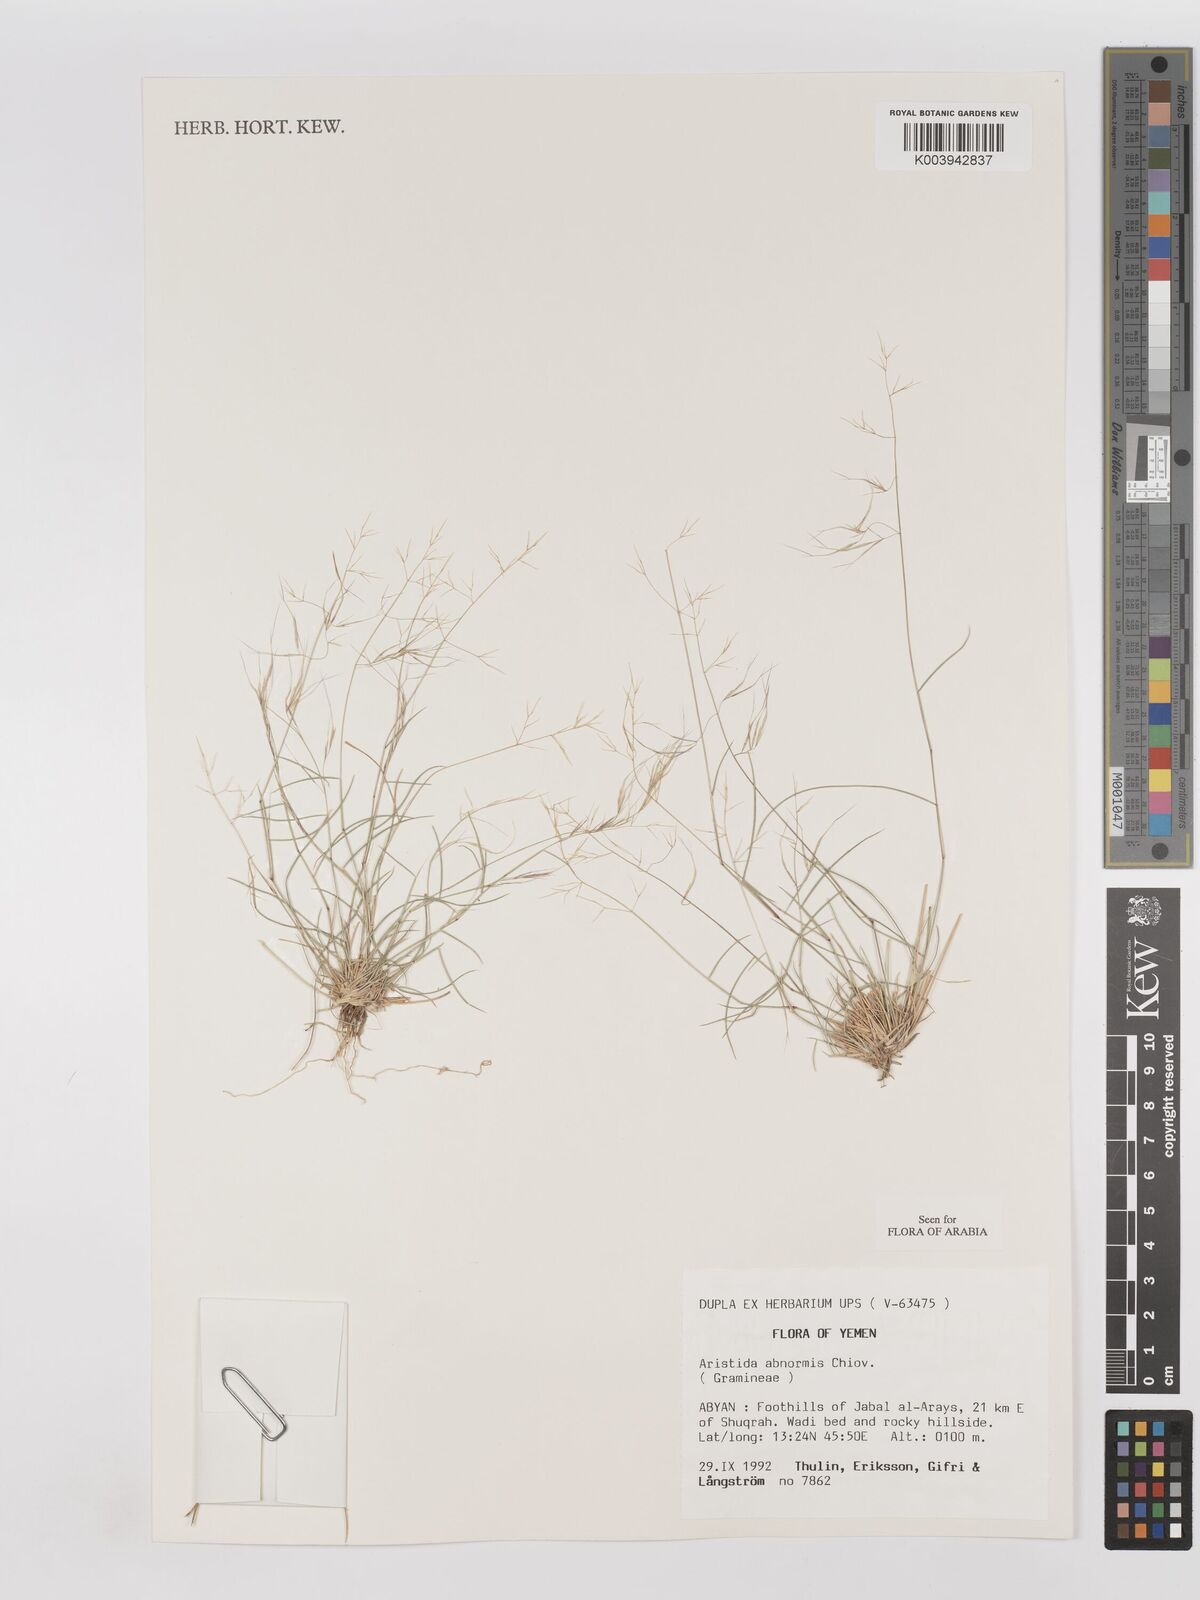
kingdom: Plantae
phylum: Tracheophyta
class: Liliopsida
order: Poales
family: Poaceae
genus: Aristida
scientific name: Aristida abnormis
